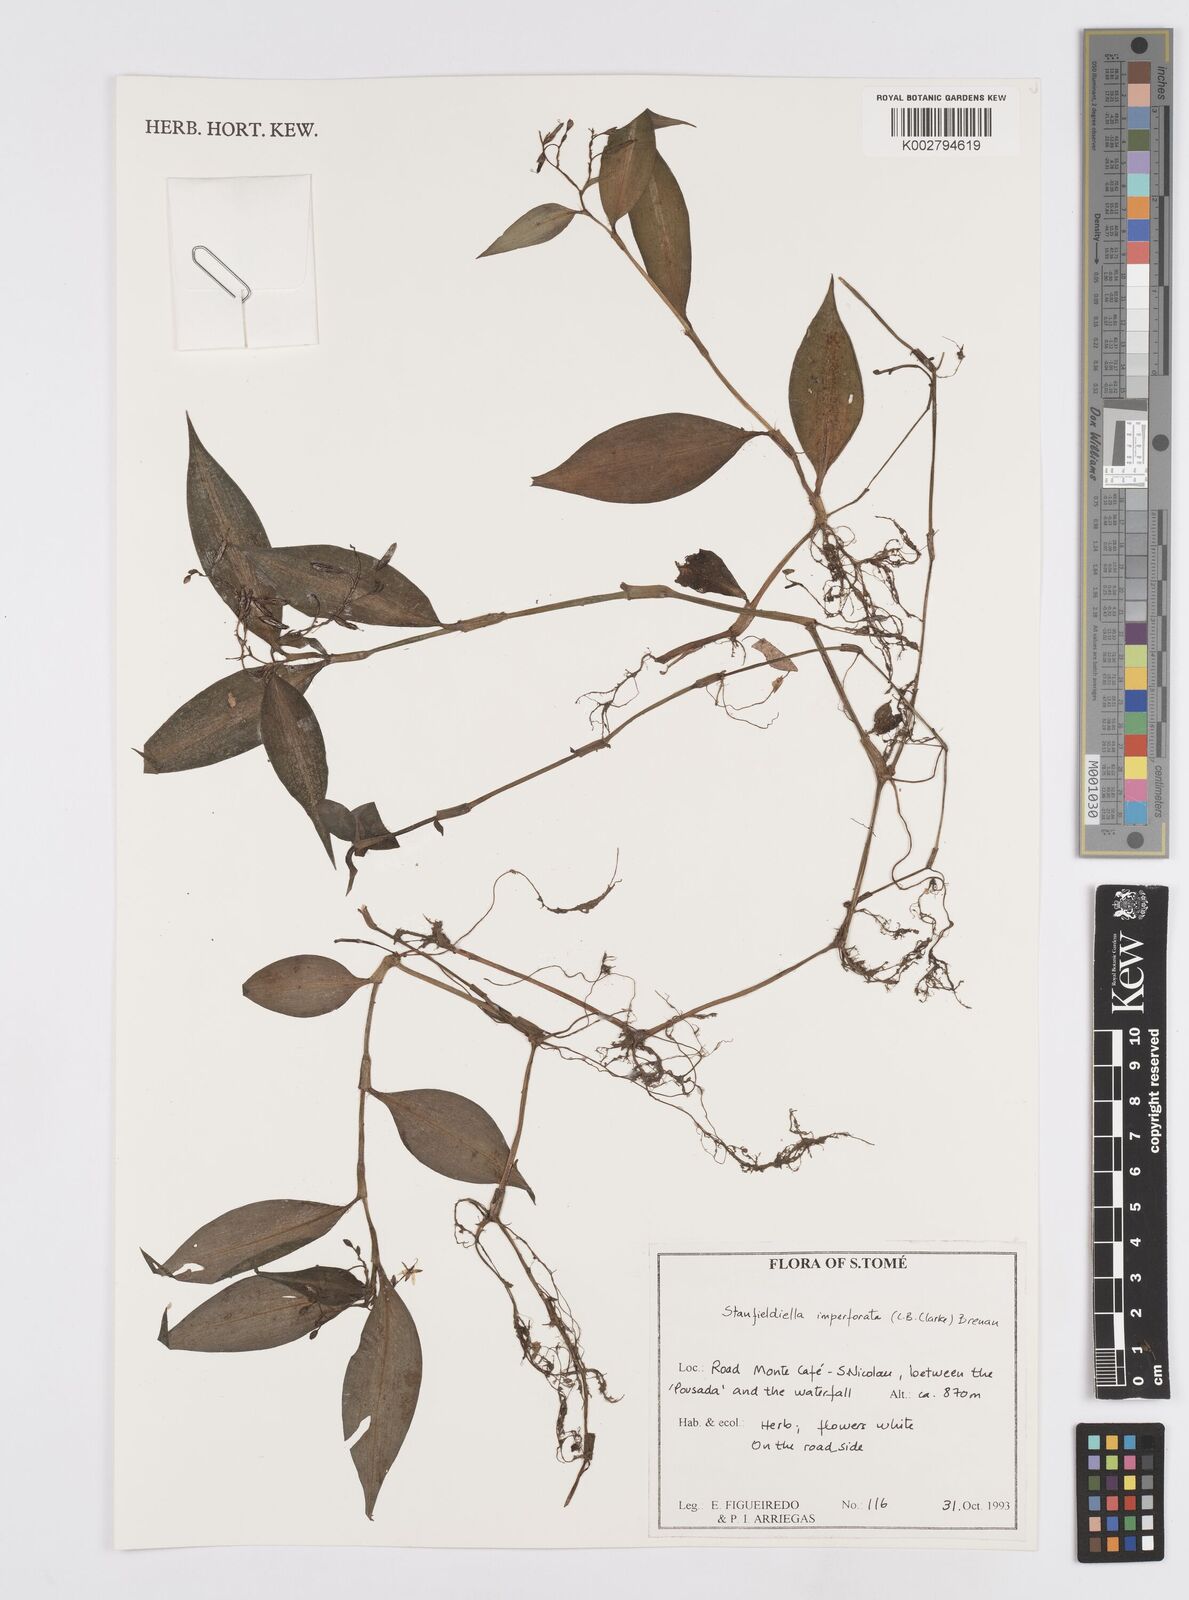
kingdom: Plantae
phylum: Tracheophyta
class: Liliopsida
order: Commelinales
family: Commelinaceae
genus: Stanfieldiella
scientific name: Stanfieldiella imperforata
